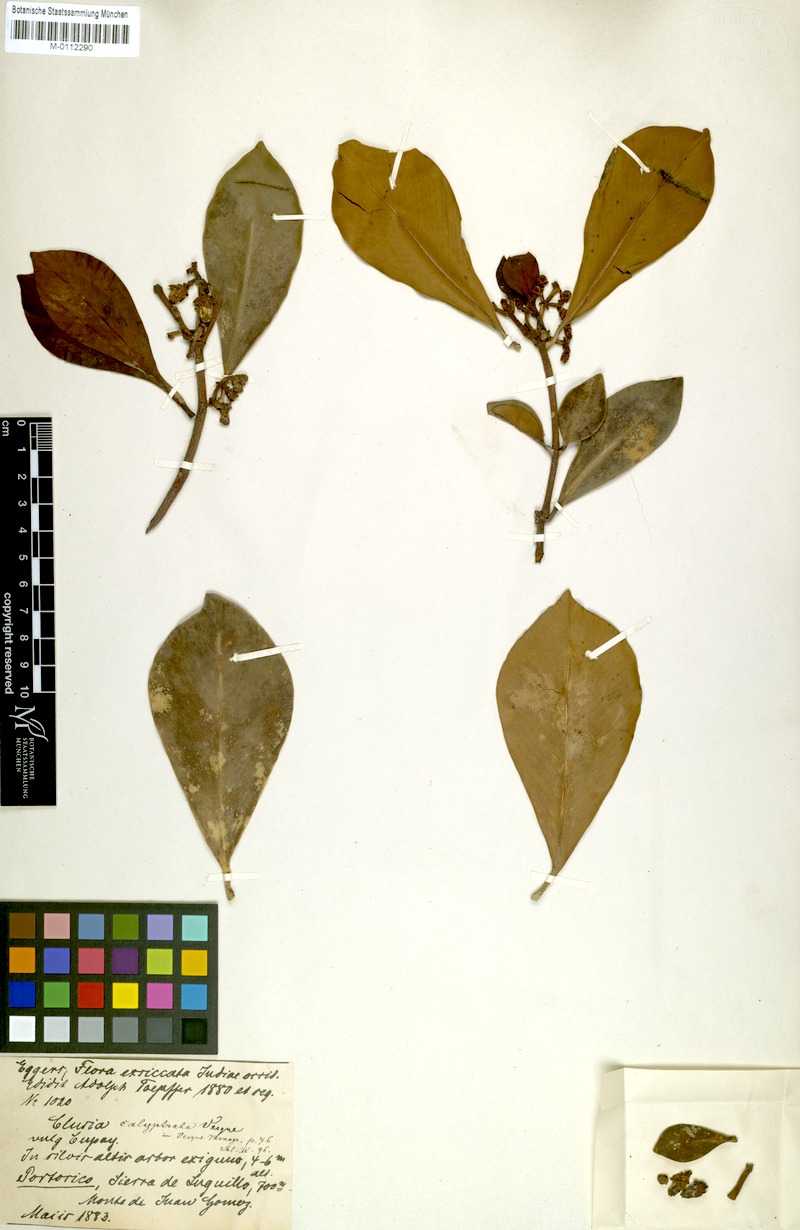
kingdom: Plantae
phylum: Tracheophyta
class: Magnoliopsida
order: Malpighiales
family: Clusiaceae
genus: Clusia
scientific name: Clusia gundlachii
